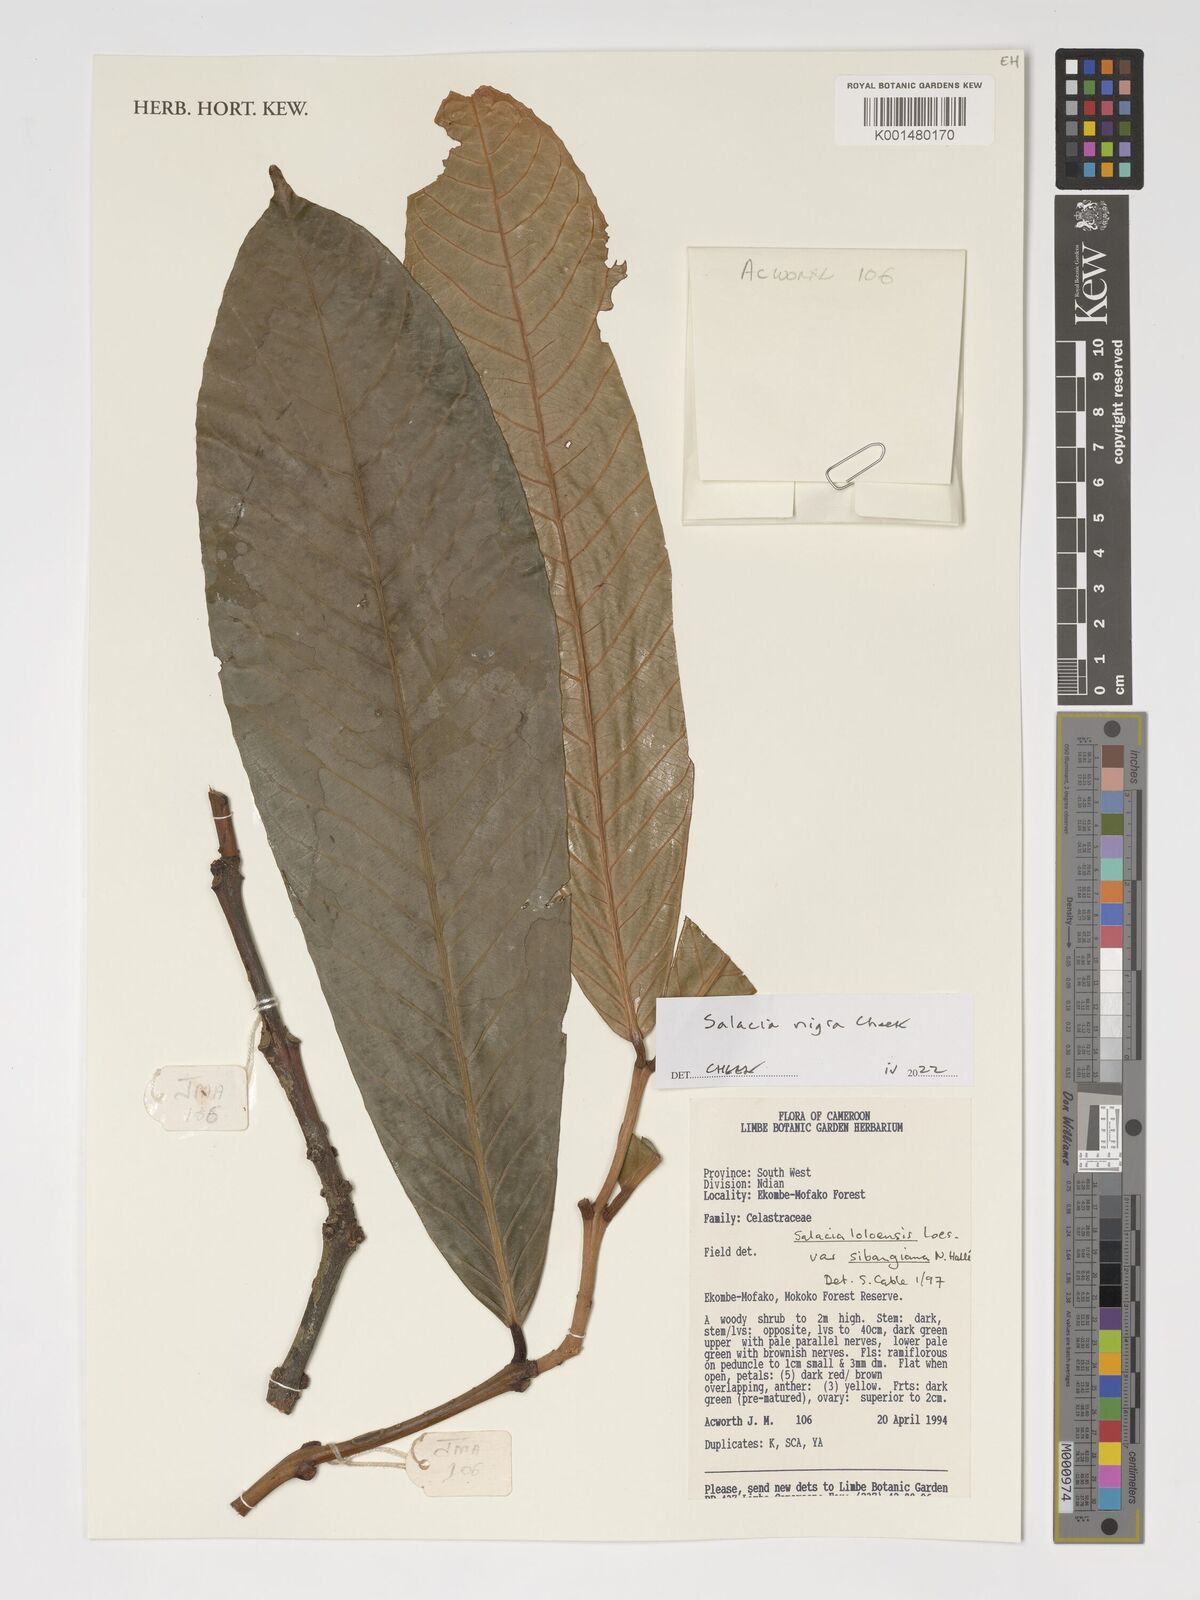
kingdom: Plantae
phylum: Tracheophyta
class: Magnoliopsida
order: Celastrales
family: Celastraceae
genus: Salacia
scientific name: Salacia nigra
